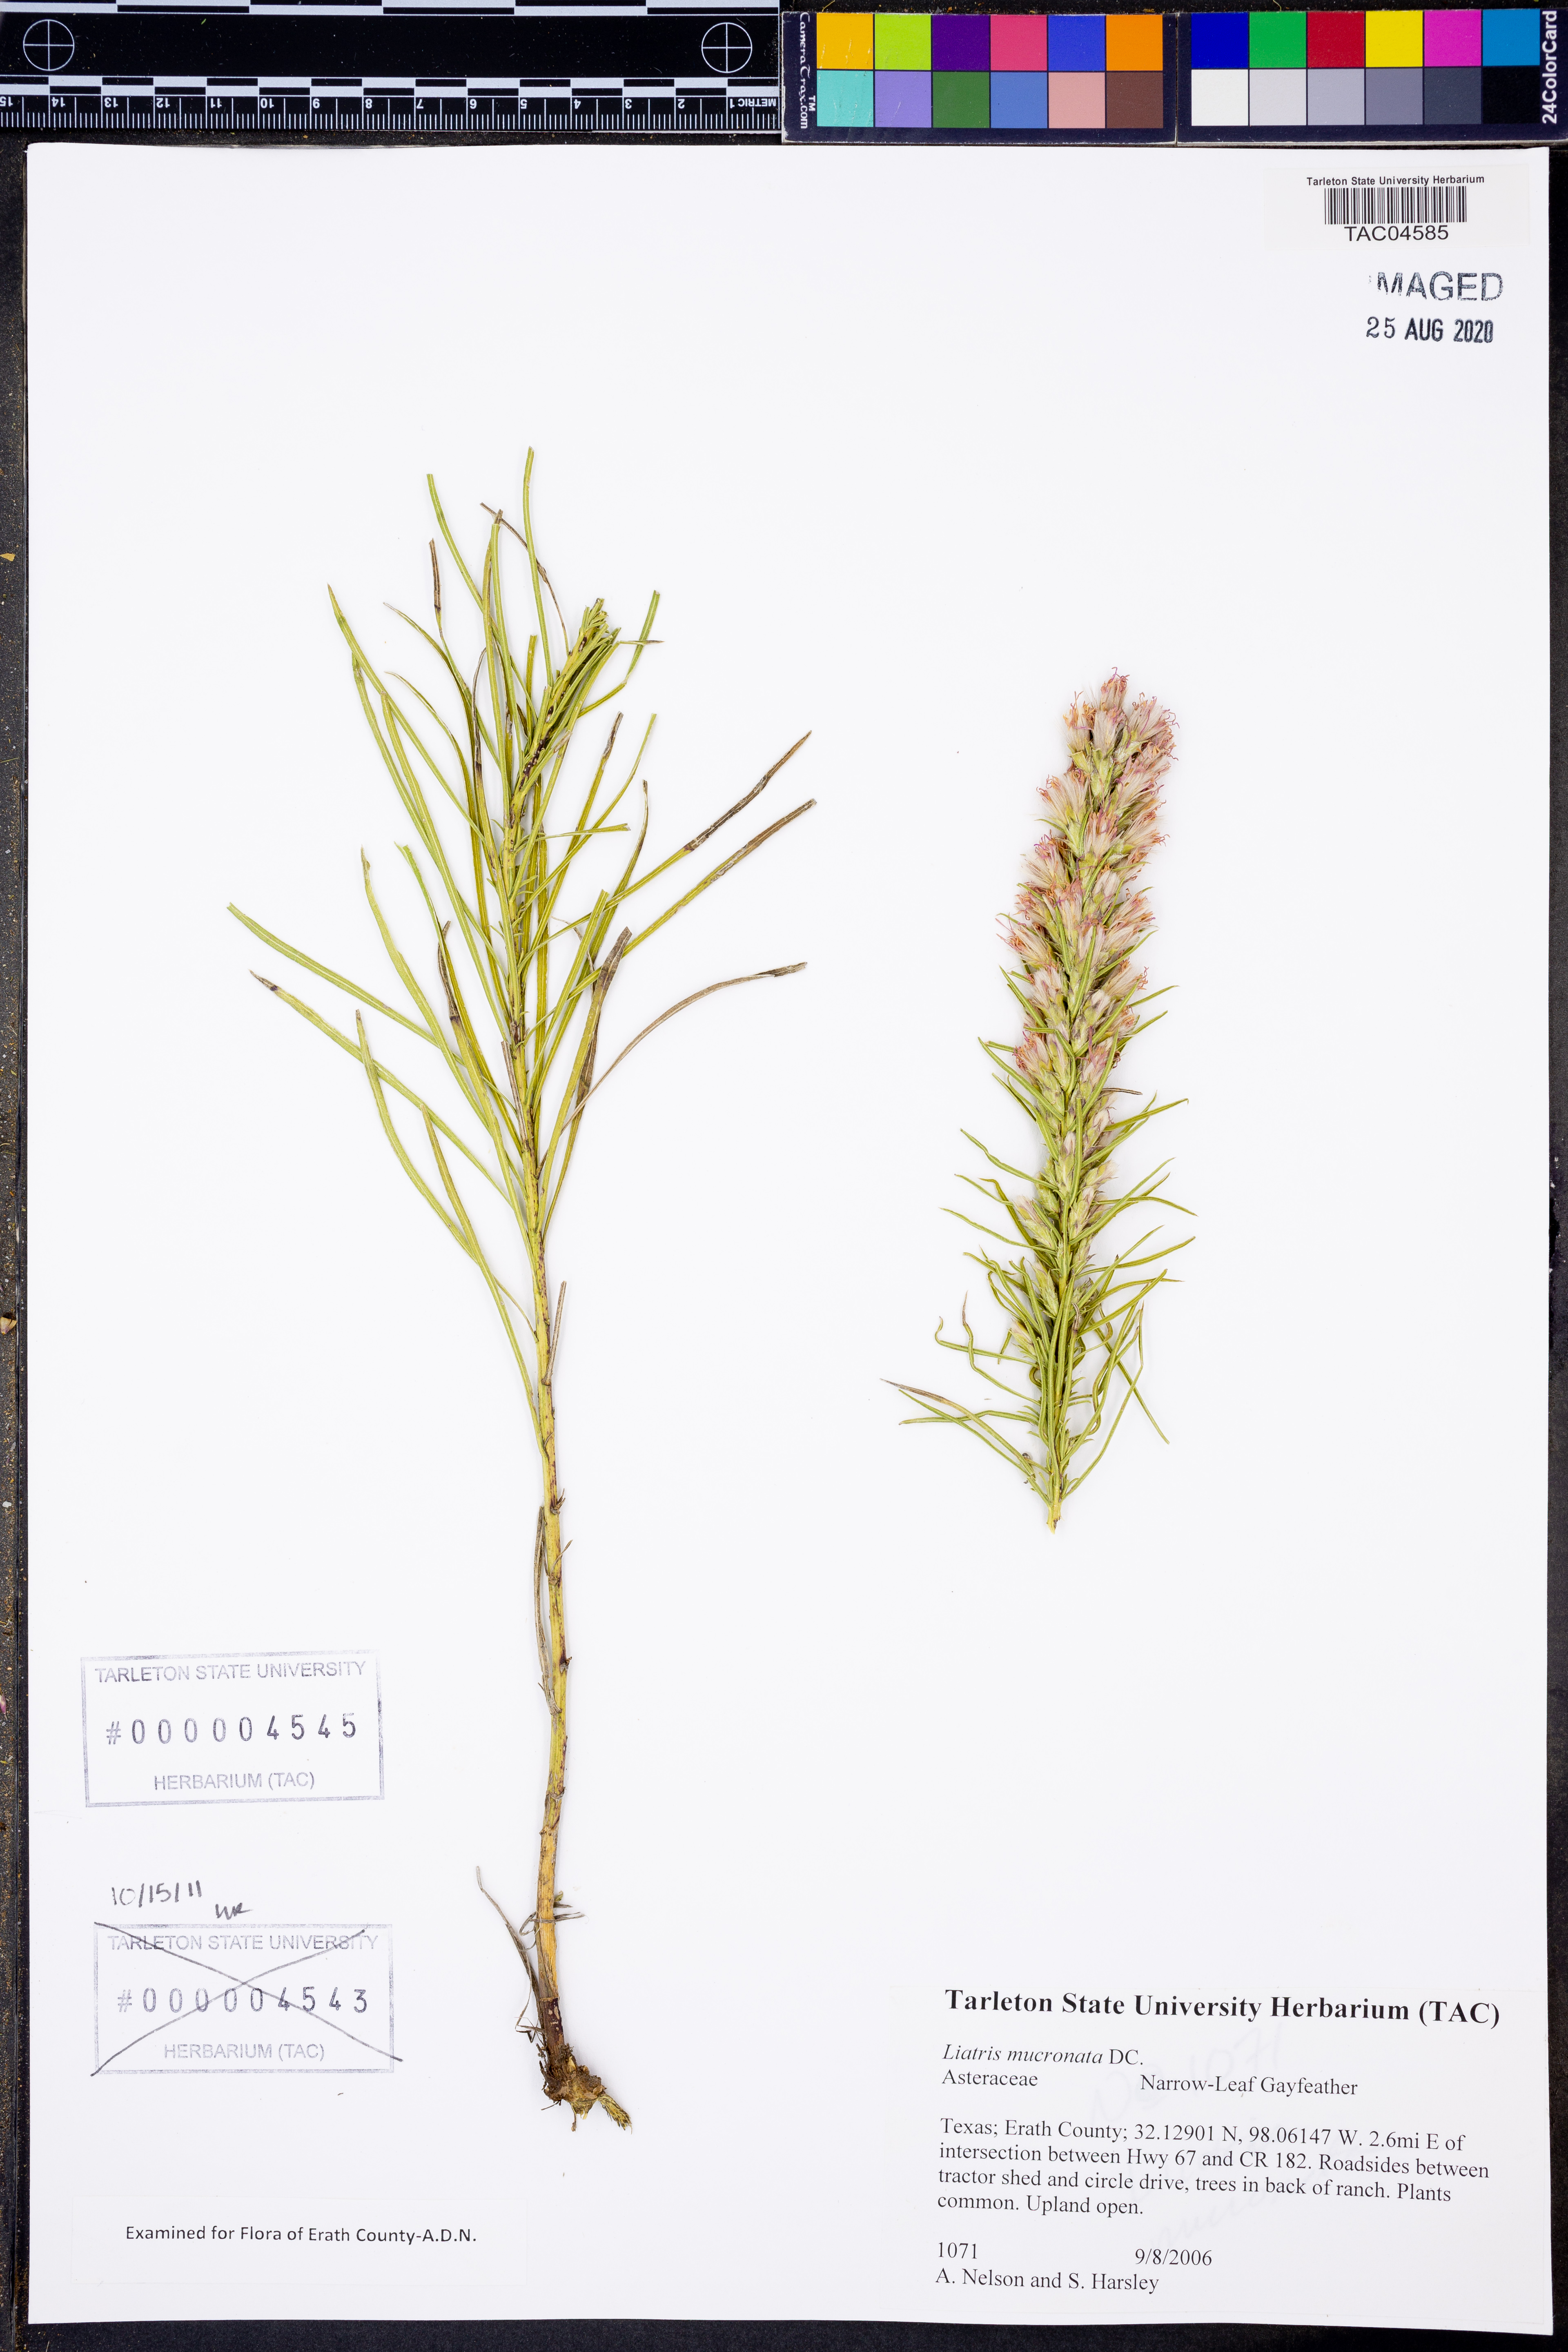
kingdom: Plantae
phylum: Tracheophyta
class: Magnoliopsida
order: Asterales
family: Asteraceae
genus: Liatris
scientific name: Liatris mucronata
